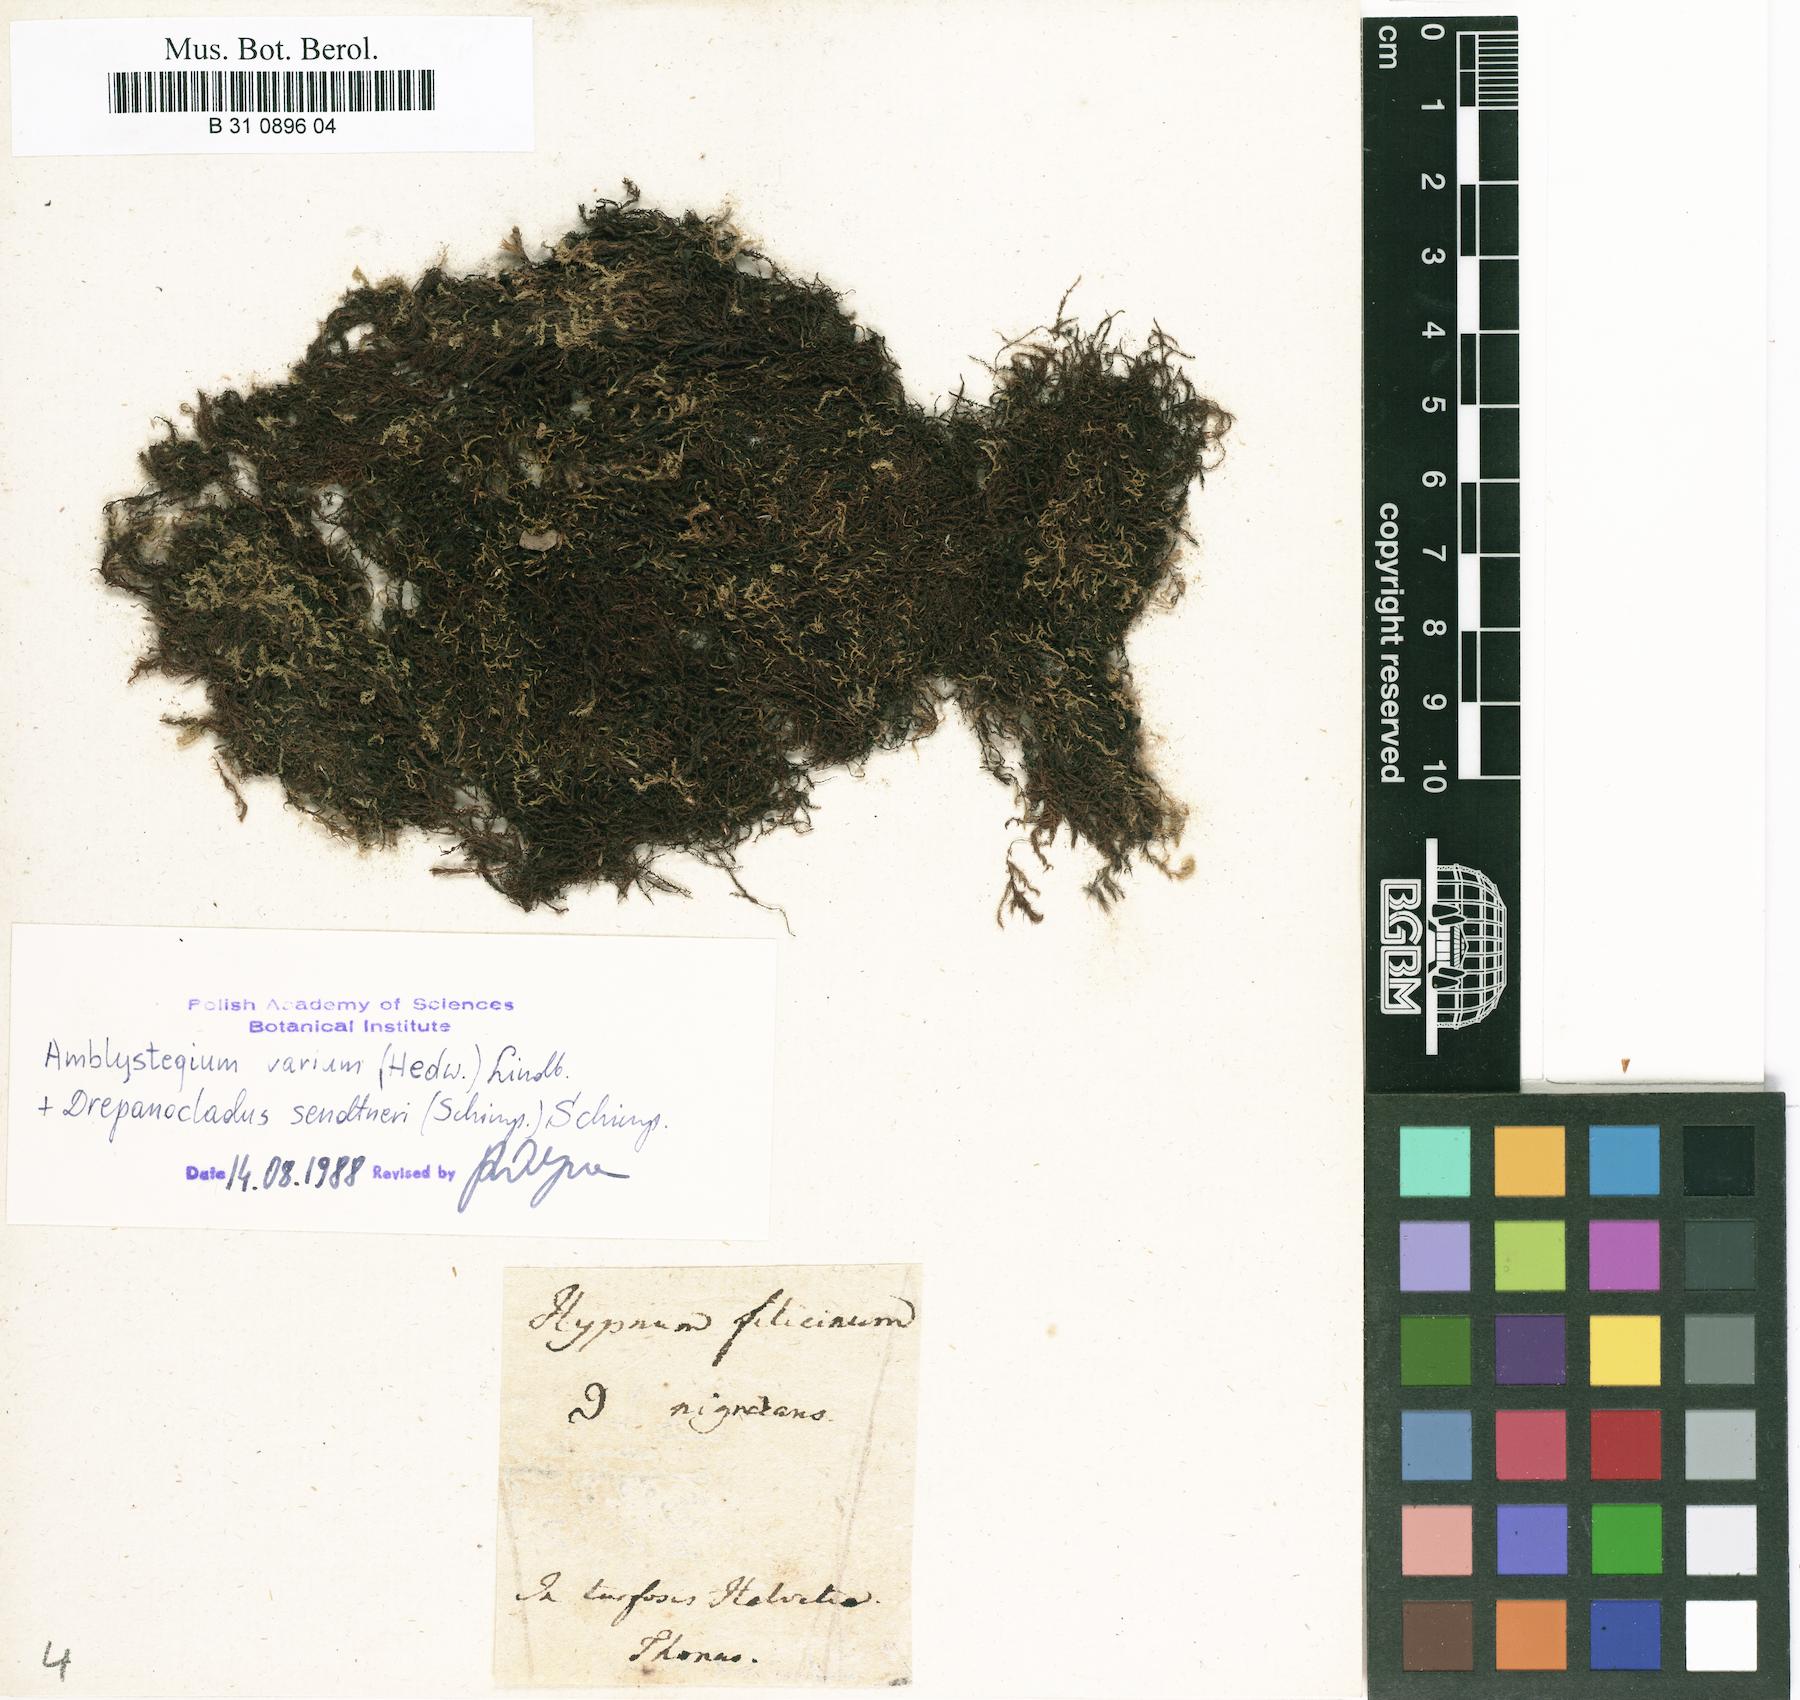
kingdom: Plantae
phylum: Bryophyta
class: Bryopsida
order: Hypnales
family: Amblystegiaceae
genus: Cratoneuron
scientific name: Cratoneuron filicinum
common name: Fern-leaved hook moss
